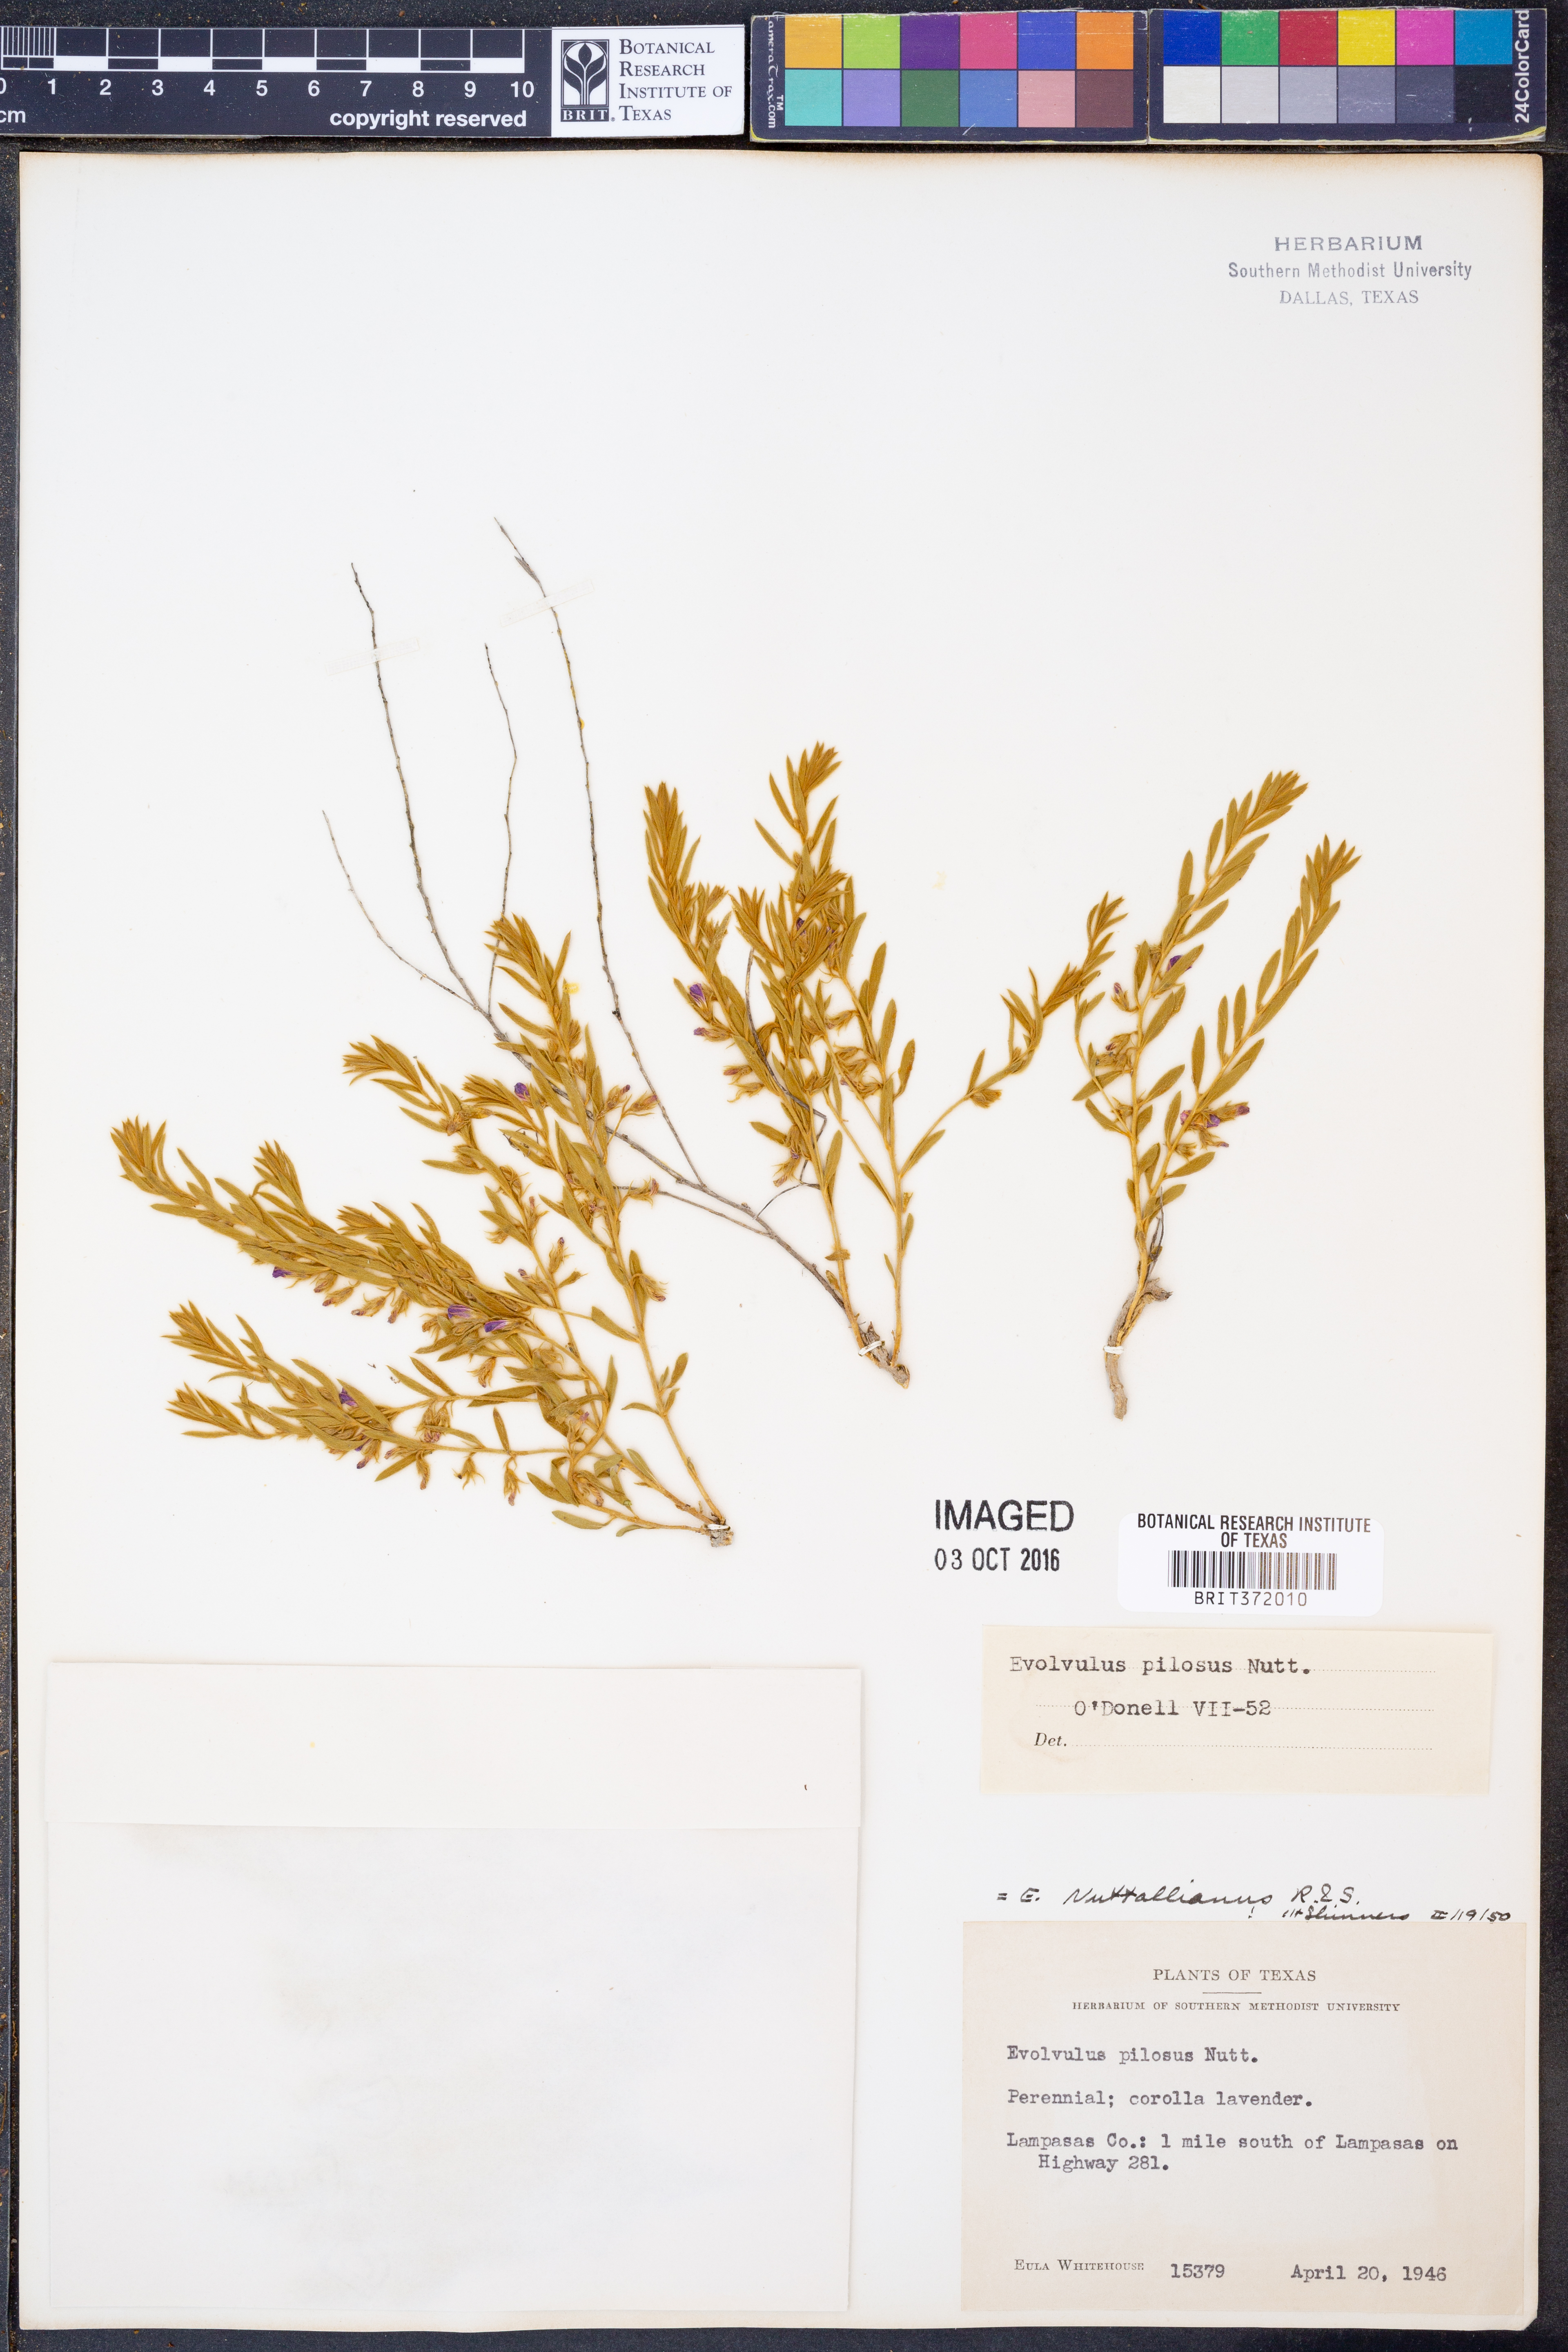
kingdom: Plantae
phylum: Tracheophyta
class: Magnoliopsida
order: Solanales
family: Convolvulaceae
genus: Evolvulus
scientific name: Evolvulus nuttallianus
